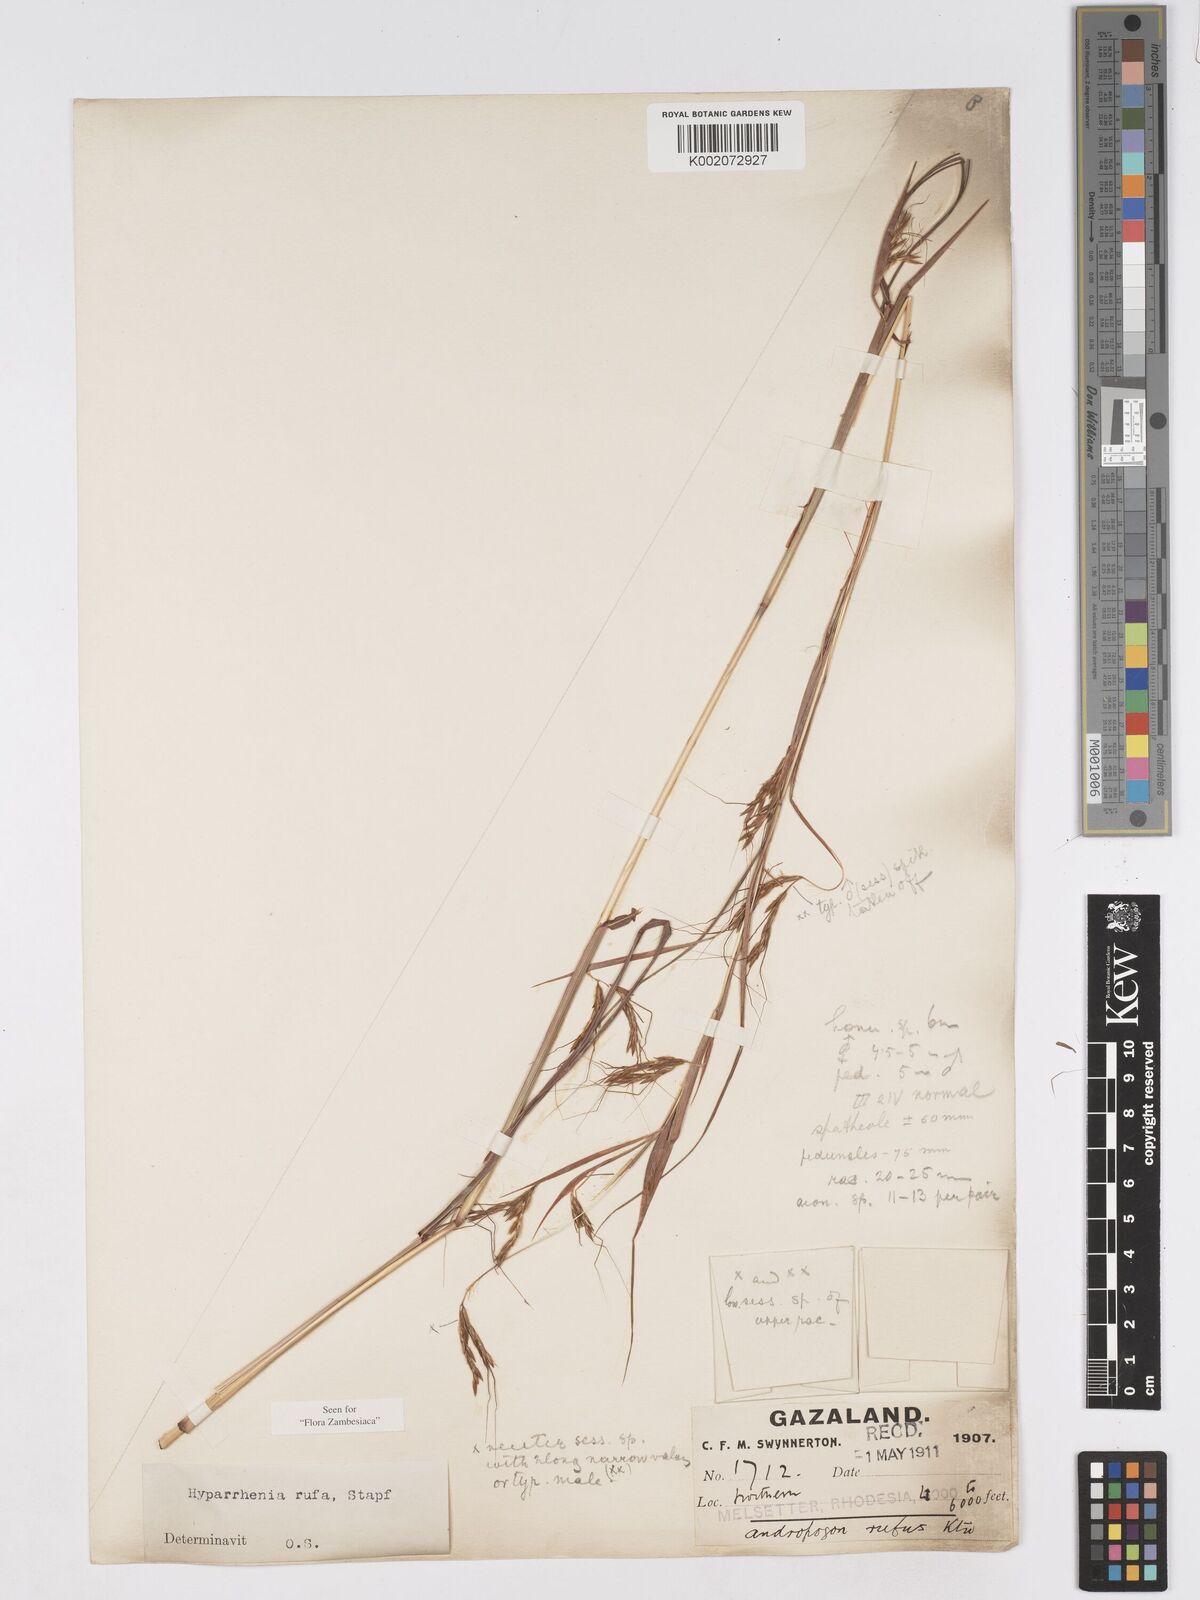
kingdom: Plantae
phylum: Tracheophyta
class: Liliopsida
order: Poales
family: Poaceae
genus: Hyparrhenia
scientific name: Hyparrhenia rufa
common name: Jaraguagrass
